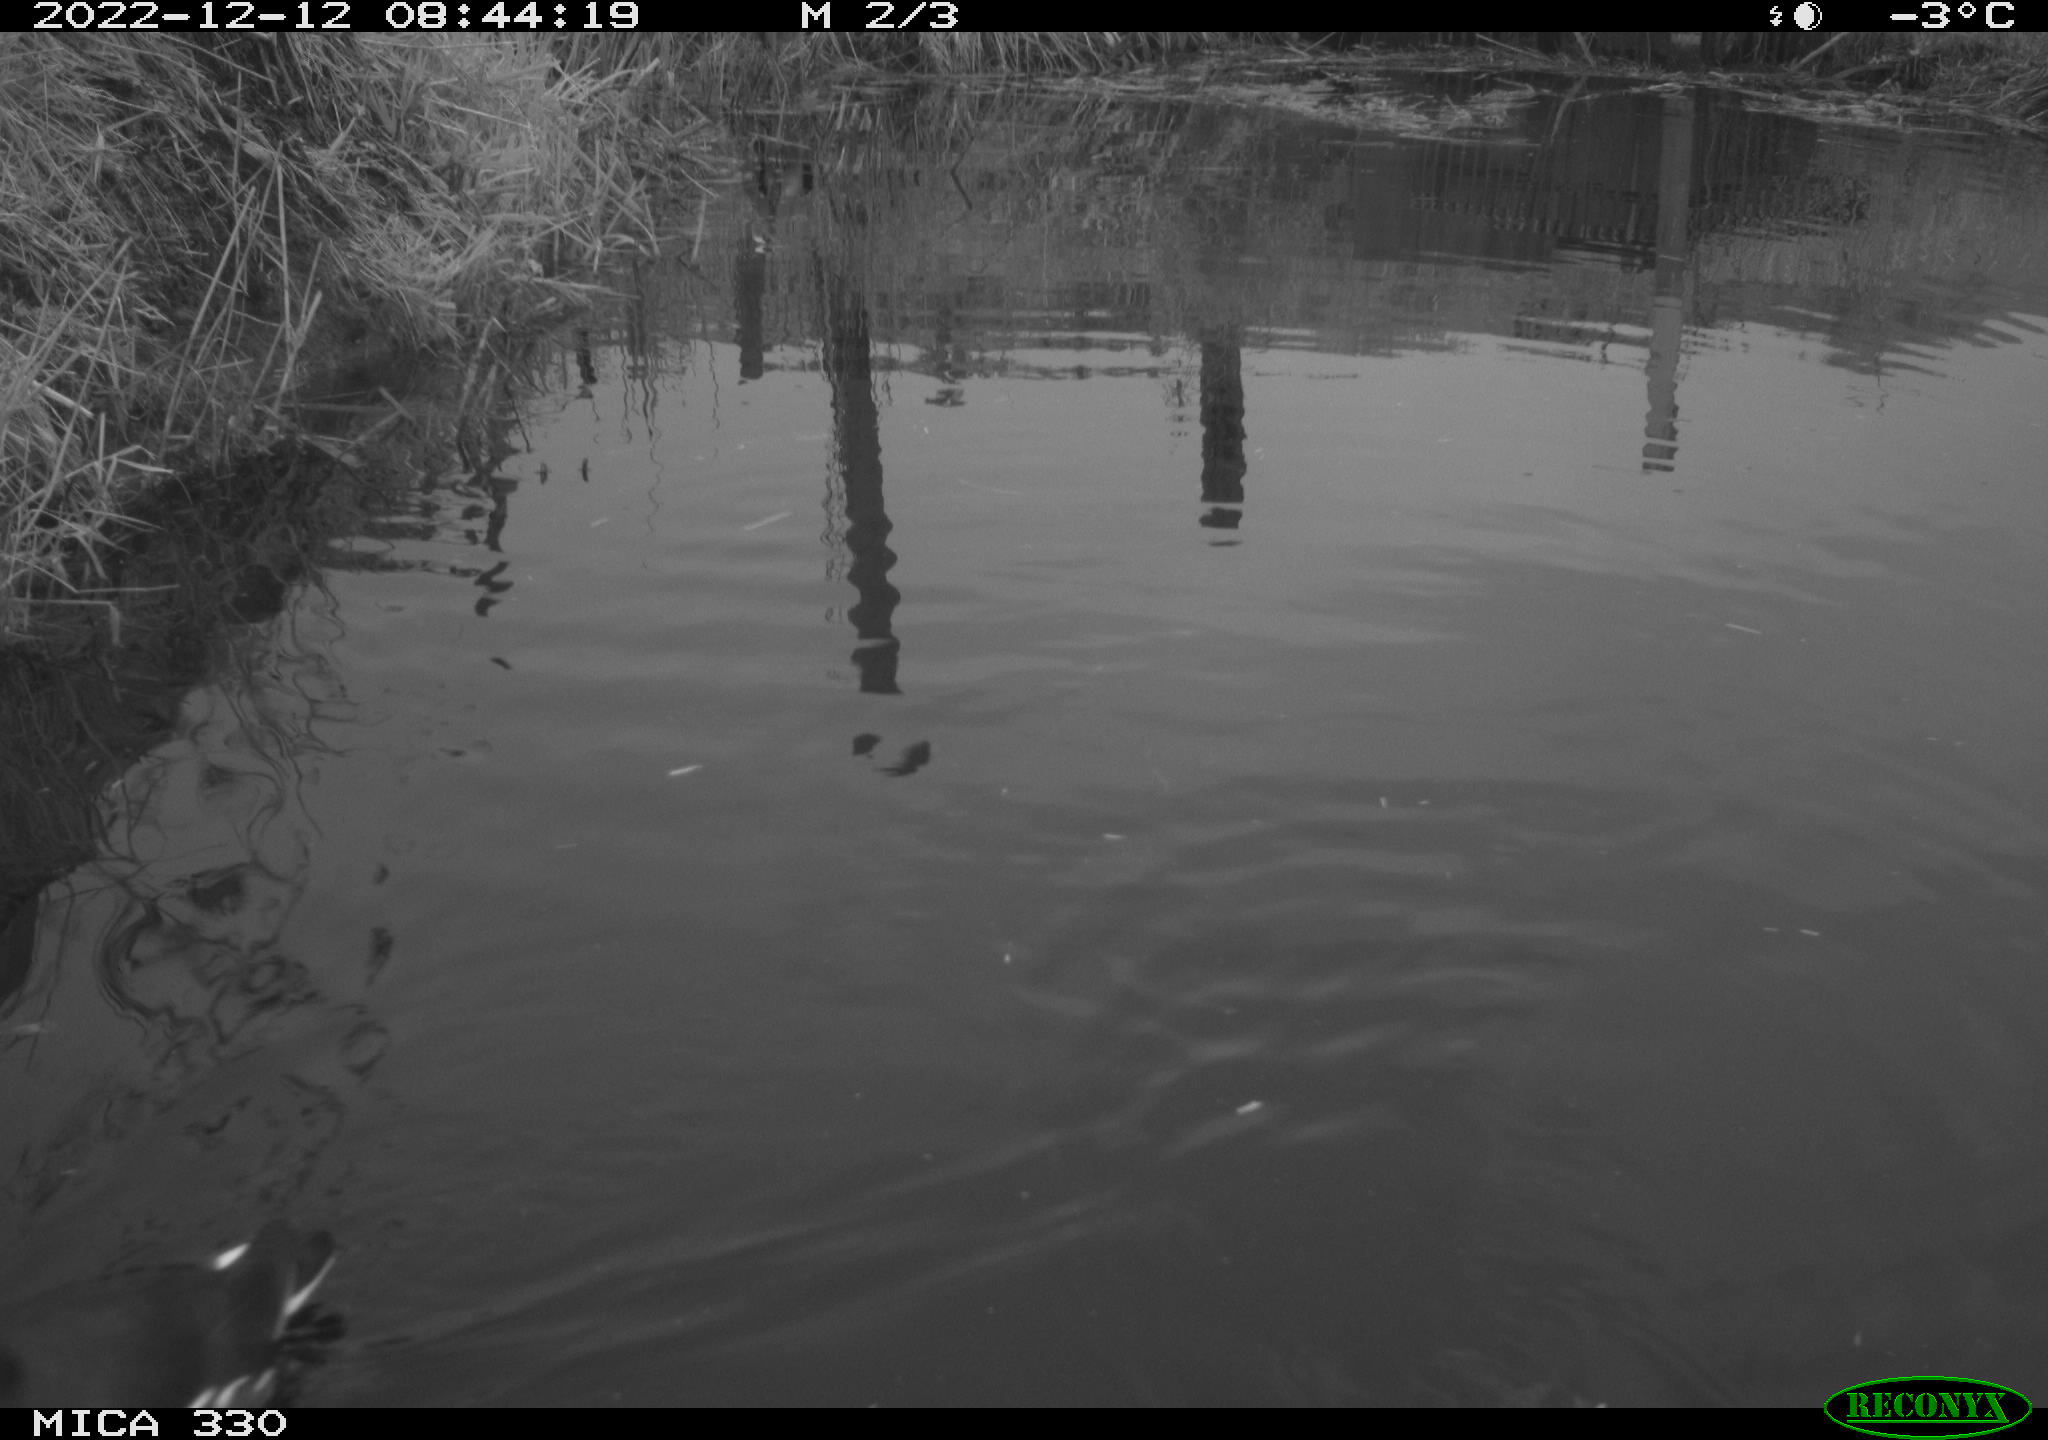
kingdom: Animalia
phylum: Chordata
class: Aves
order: Gruiformes
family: Rallidae
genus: Gallinula
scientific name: Gallinula chloropus
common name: Common moorhen
